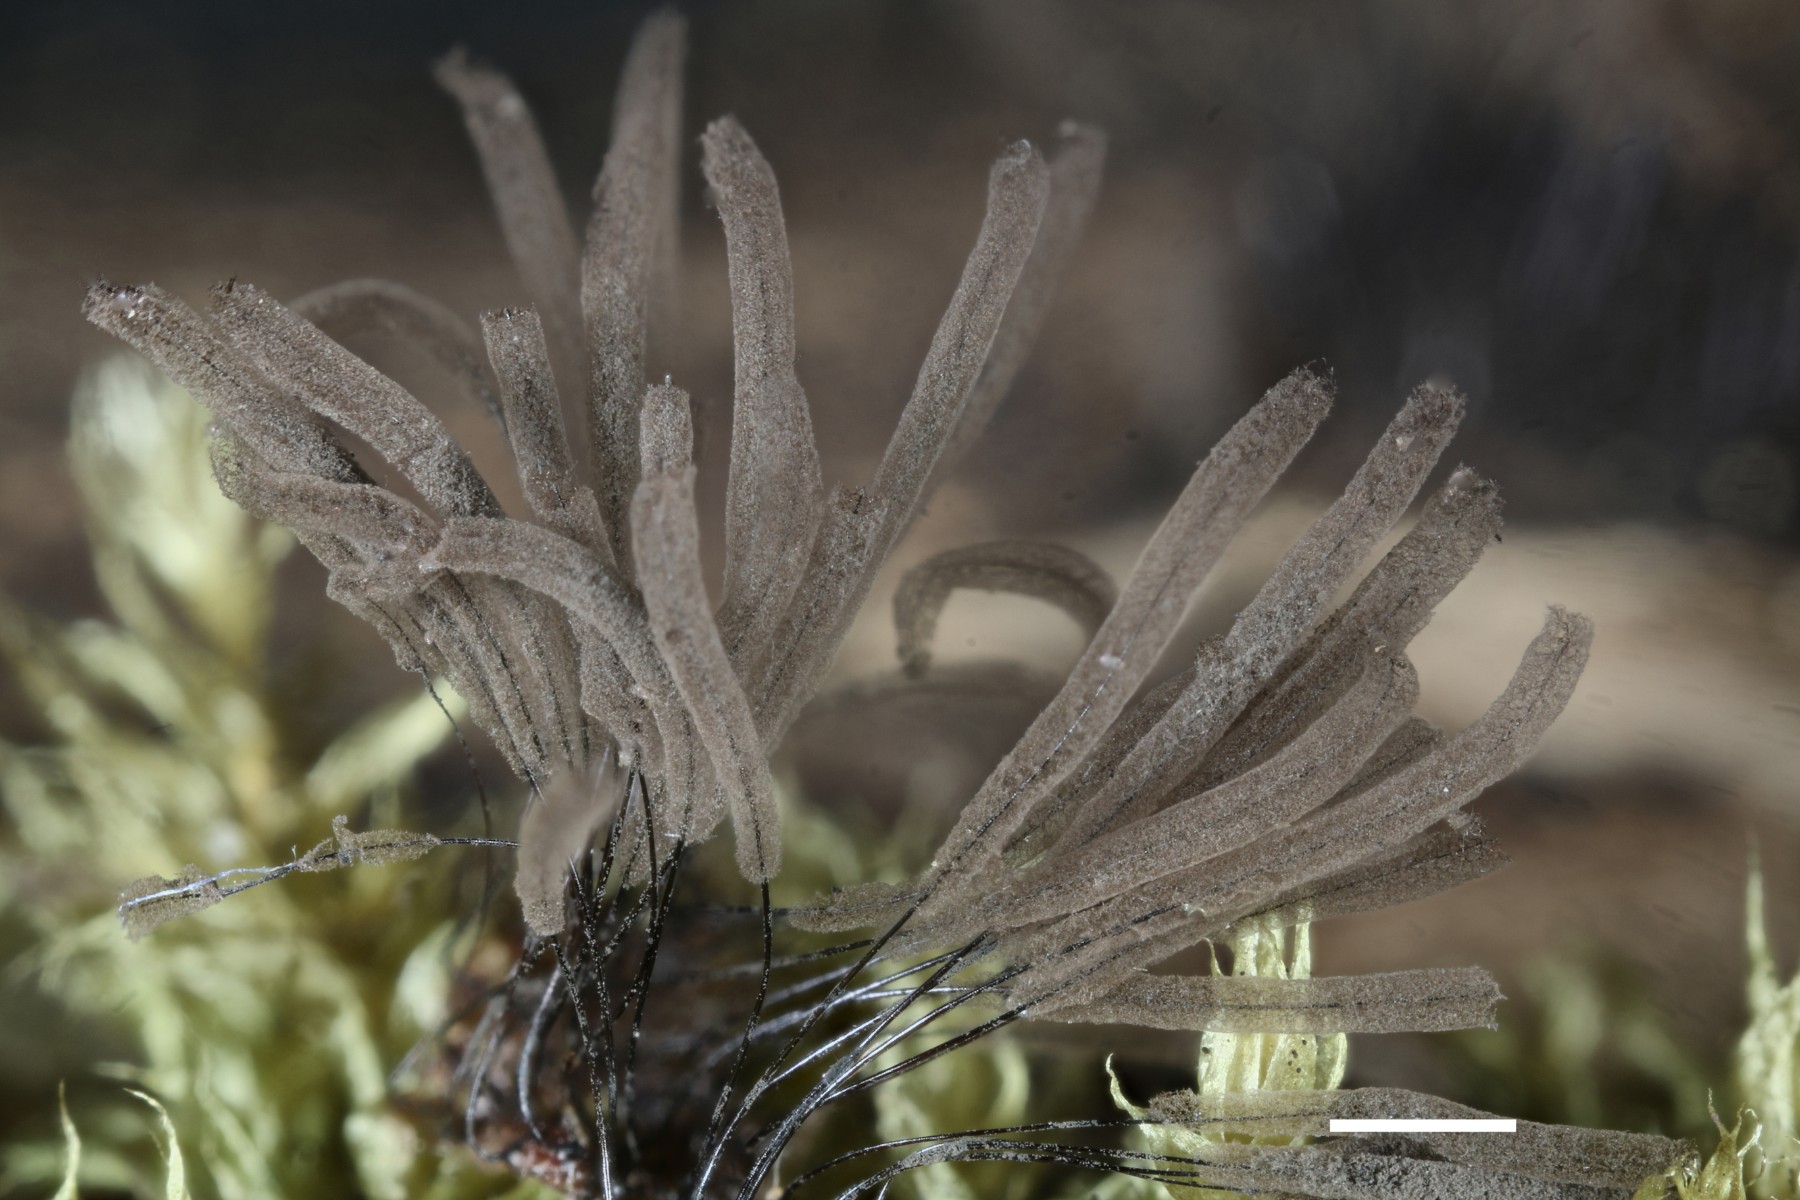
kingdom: Protozoa
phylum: Mycetozoa
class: Myxomycetes
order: Stemonitidales
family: Stemonitidaceae
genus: Stemonitis
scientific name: Stemonitis fusca
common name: sodbrun støvkølle
